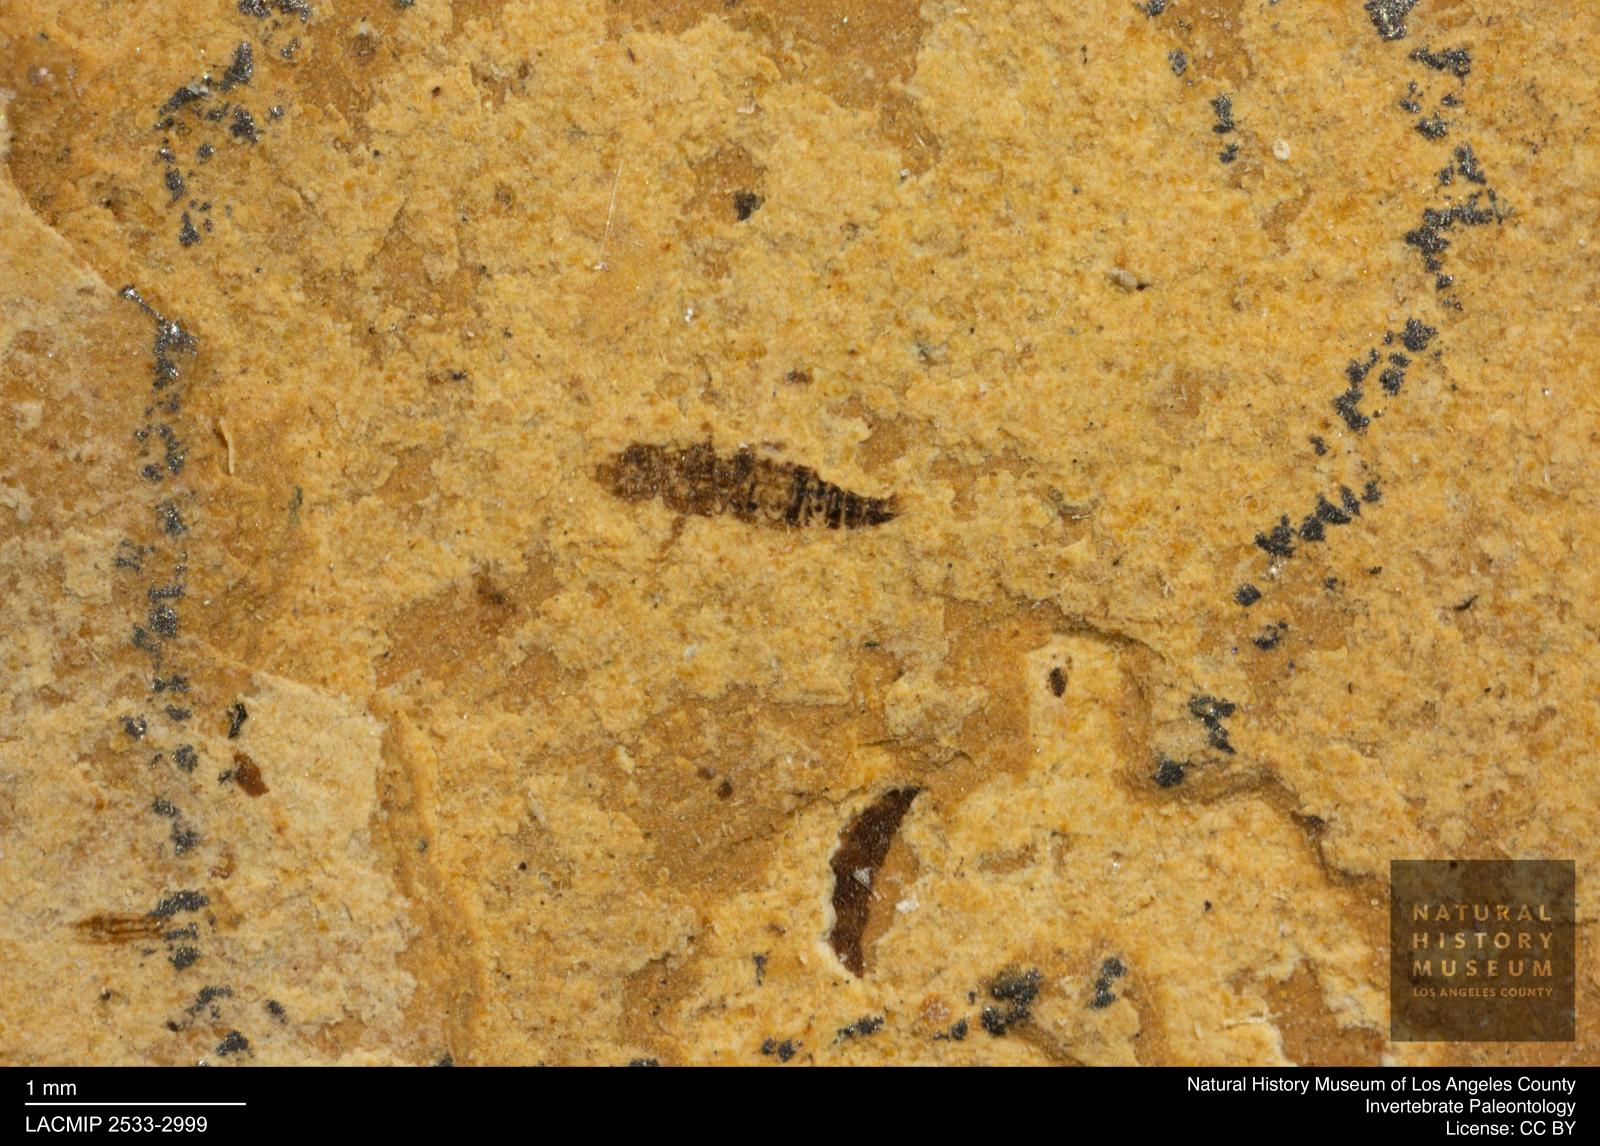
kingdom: Animalia
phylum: Arthropoda
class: Insecta
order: Thysanoptera
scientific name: Thysanoptera
